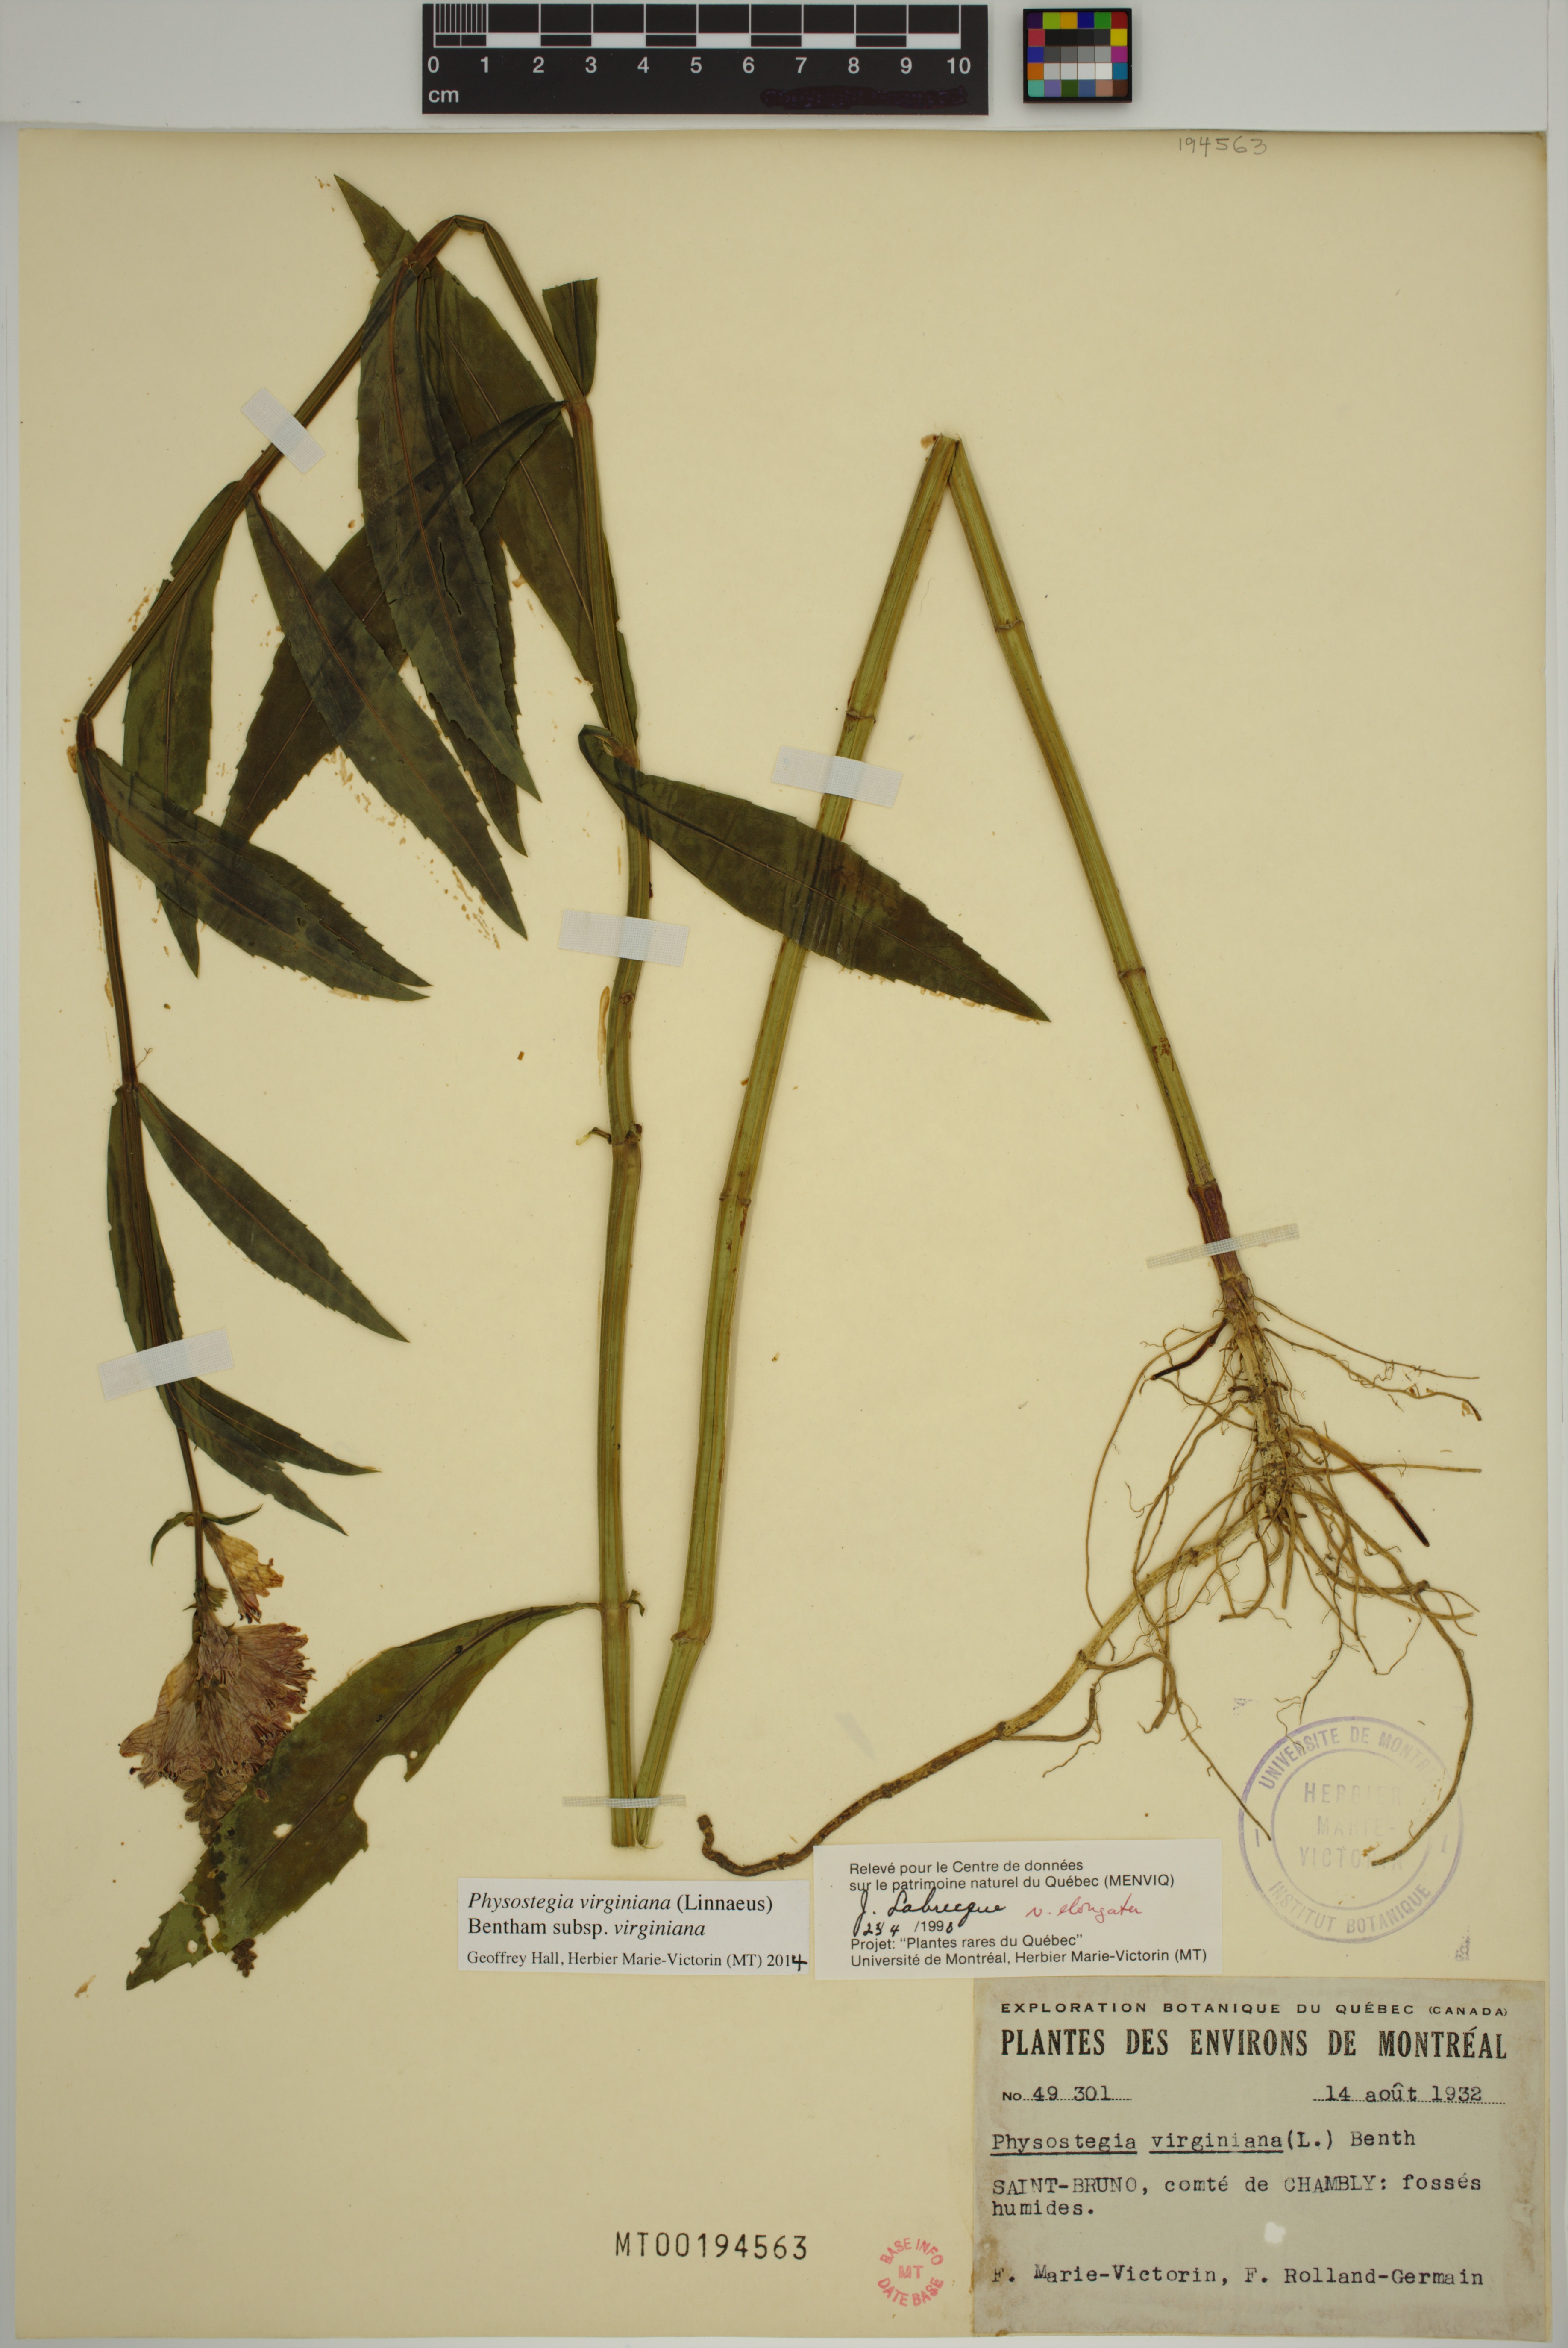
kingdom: Plantae
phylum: Tracheophyta
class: Magnoliopsida
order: Lamiales
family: Lamiaceae
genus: Physostegia
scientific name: Physostegia virginiana
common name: Obedient-plant
